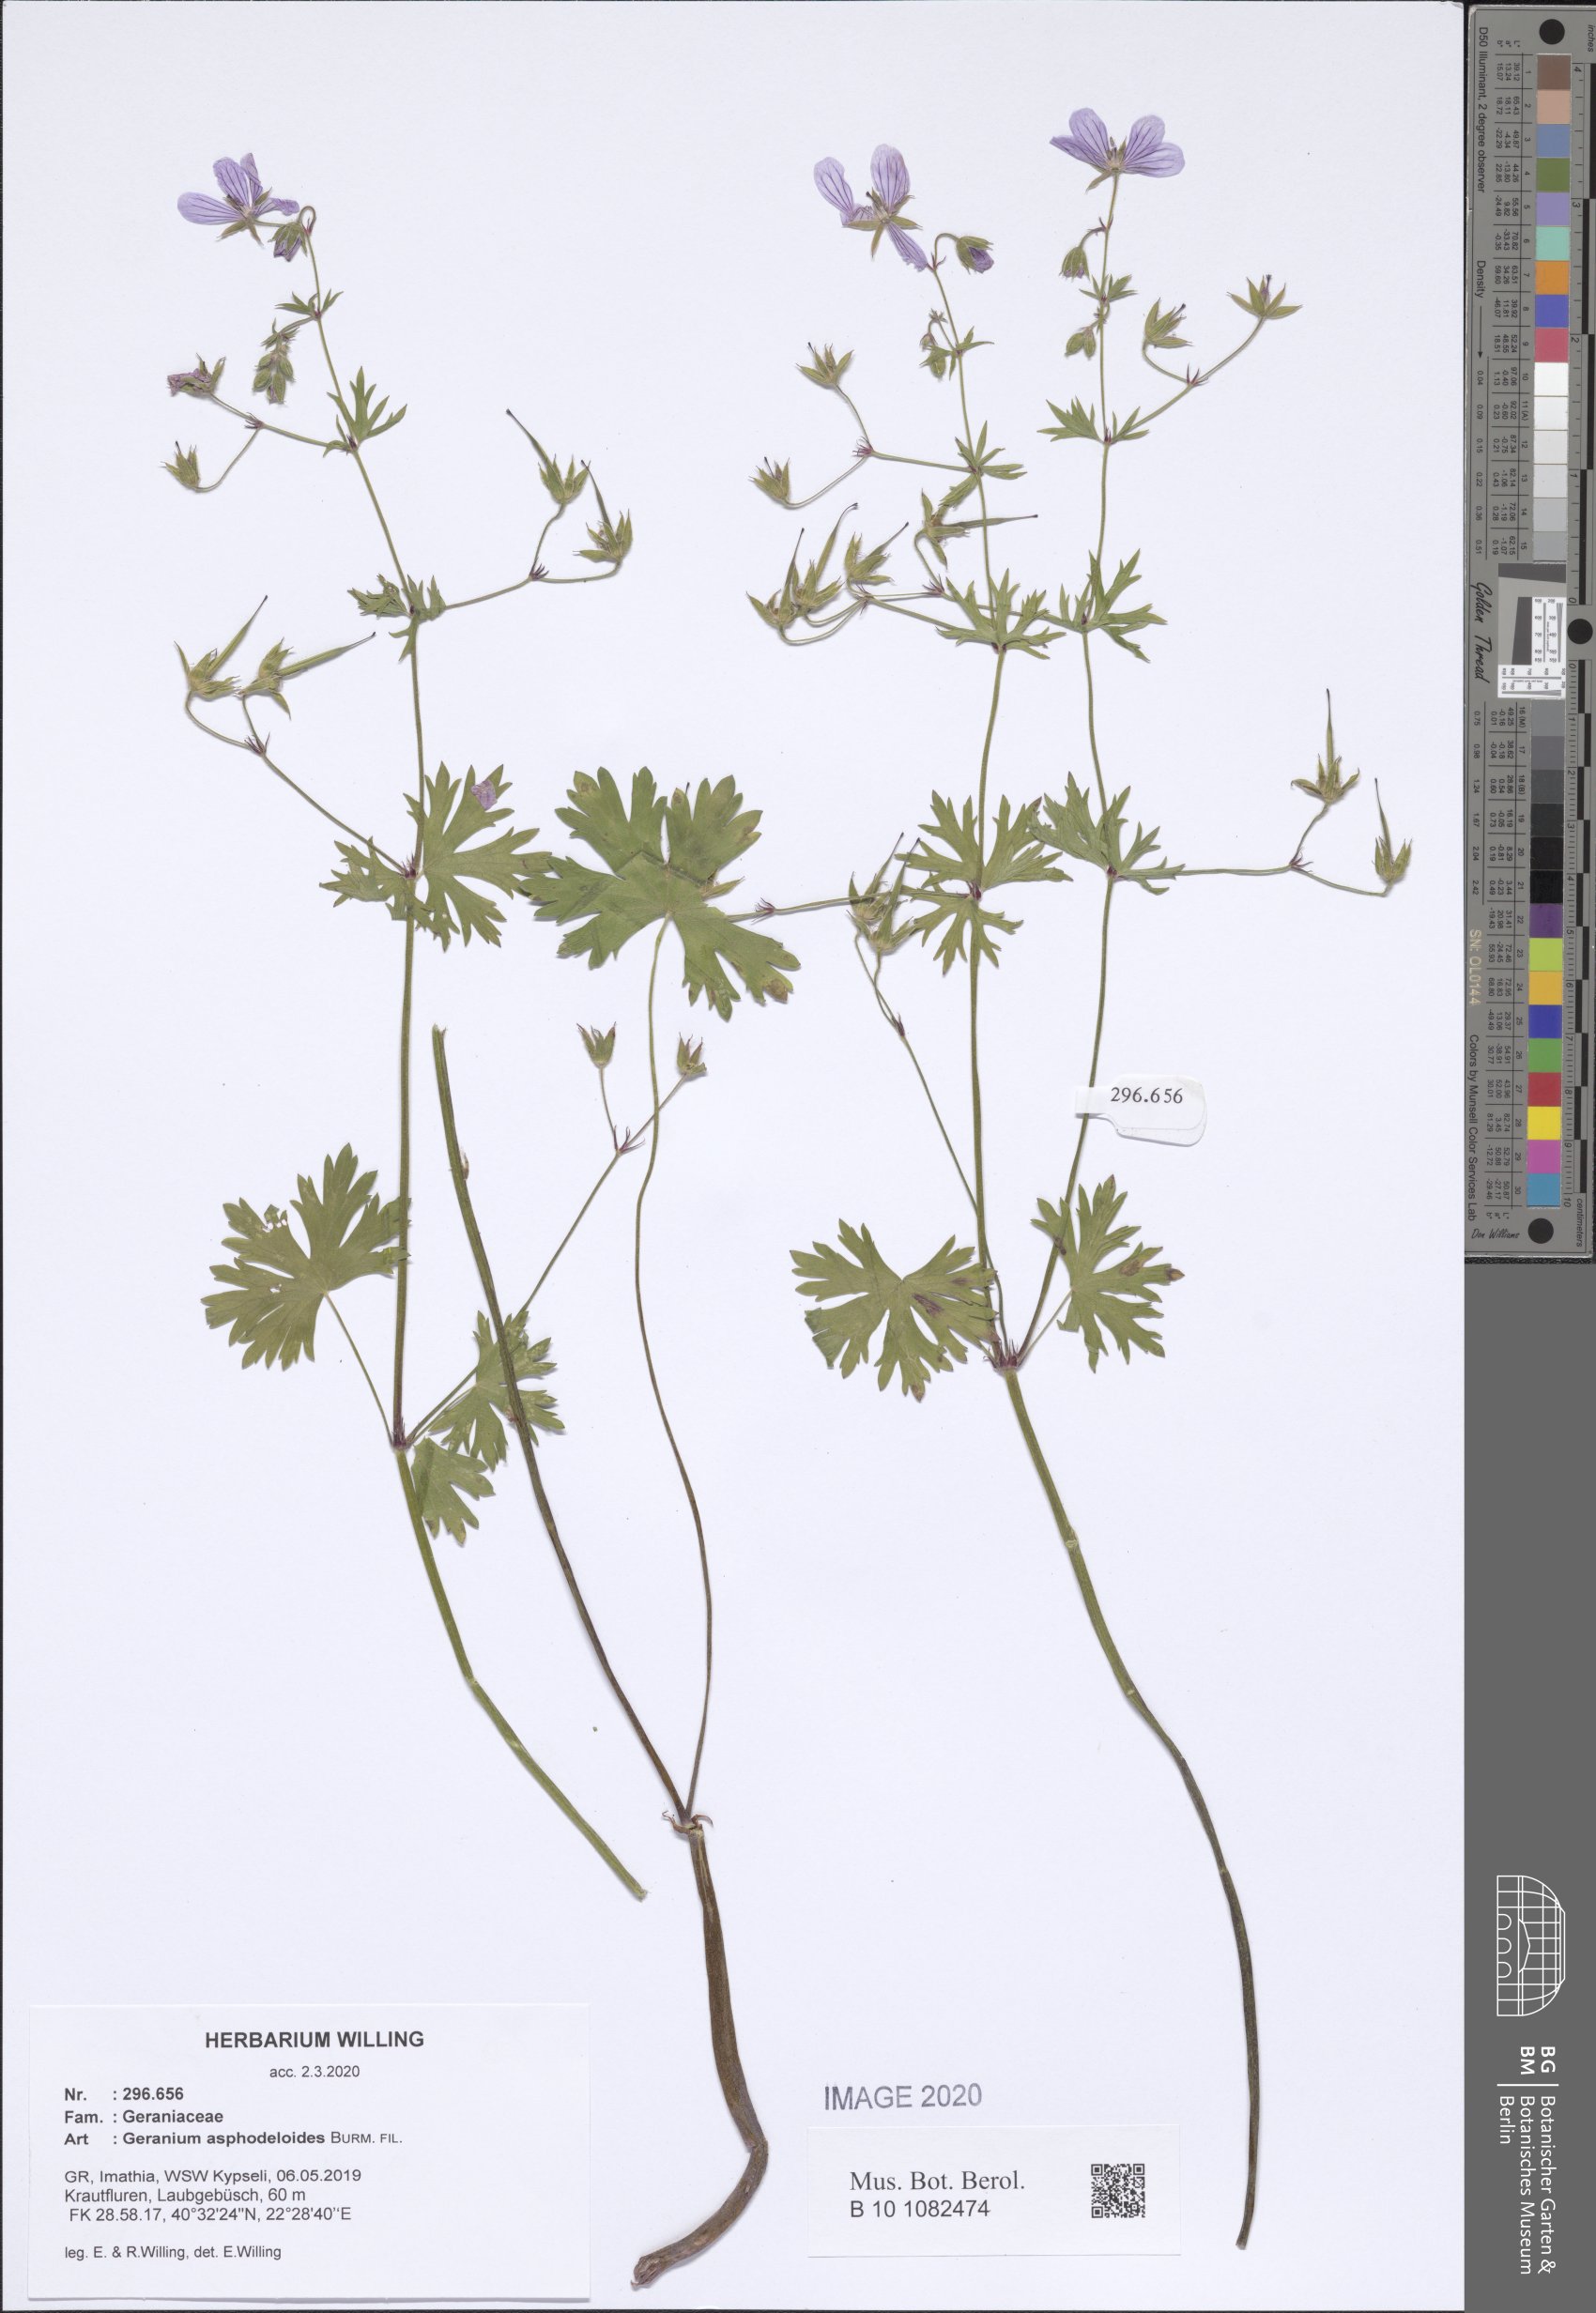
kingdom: Plantae
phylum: Tracheophyta
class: Magnoliopsida
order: Geraniales
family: Geraniaceae
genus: Geranium
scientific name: Geranium asphodeloides
